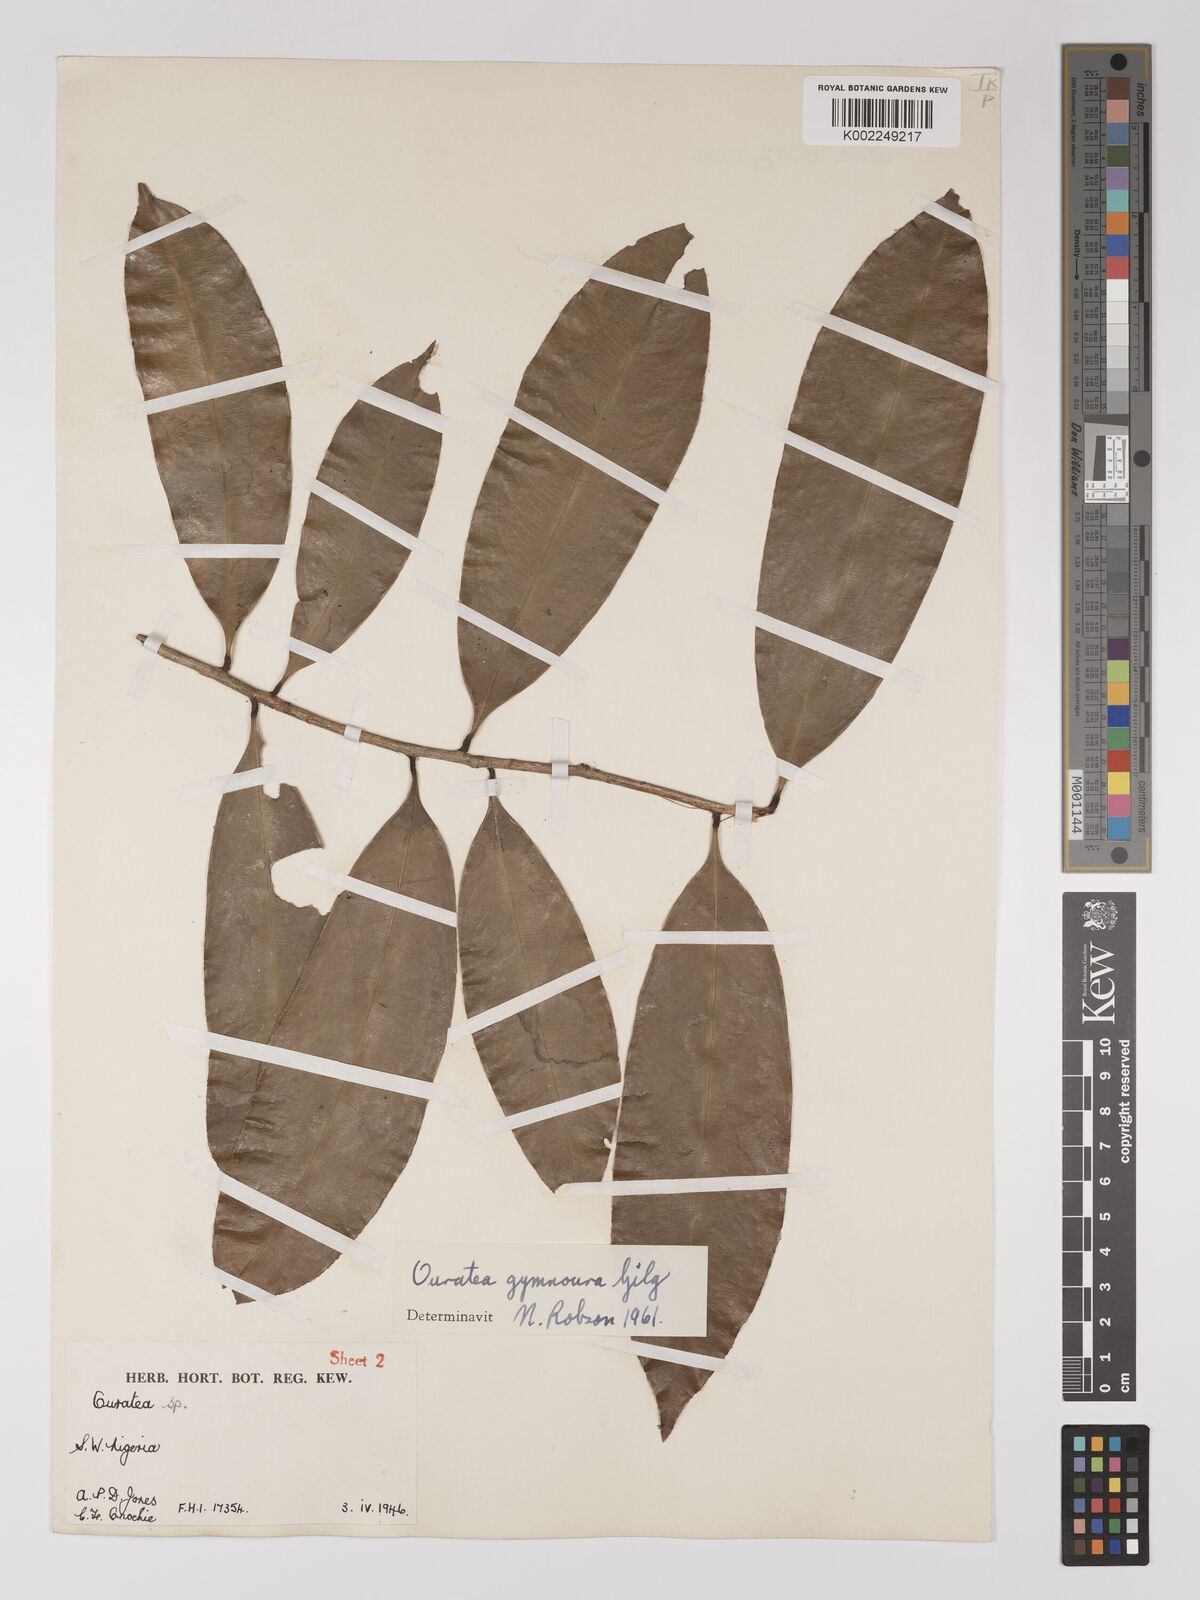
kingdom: Plantae
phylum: Tracheophyta
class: Magnoliopsida
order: Malpighiales
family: Ochnaceae
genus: Campylospermum
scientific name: Campylospermum
